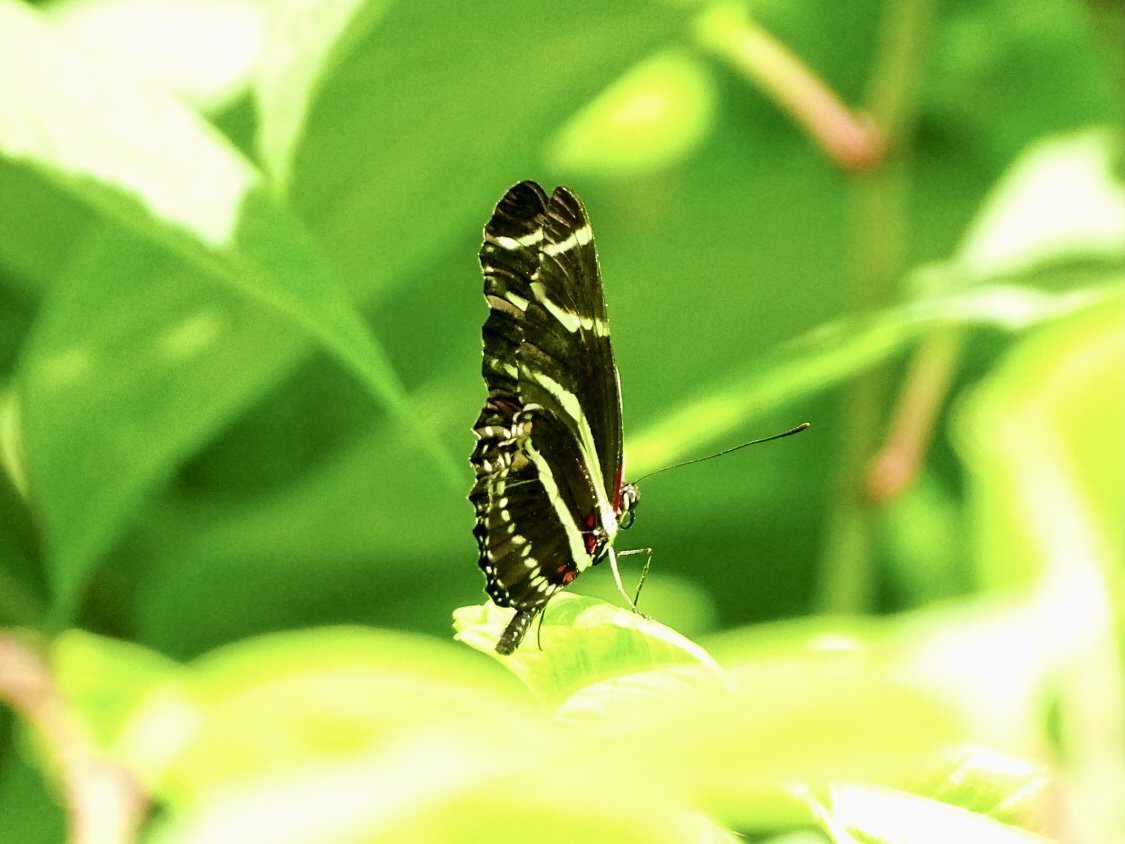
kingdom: Animalia
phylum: Arthropoda
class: Insecta
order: Lepidoptera
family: Nymphalidae
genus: Heliconius
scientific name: Heliconius charithonia
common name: Zebra Longwing
